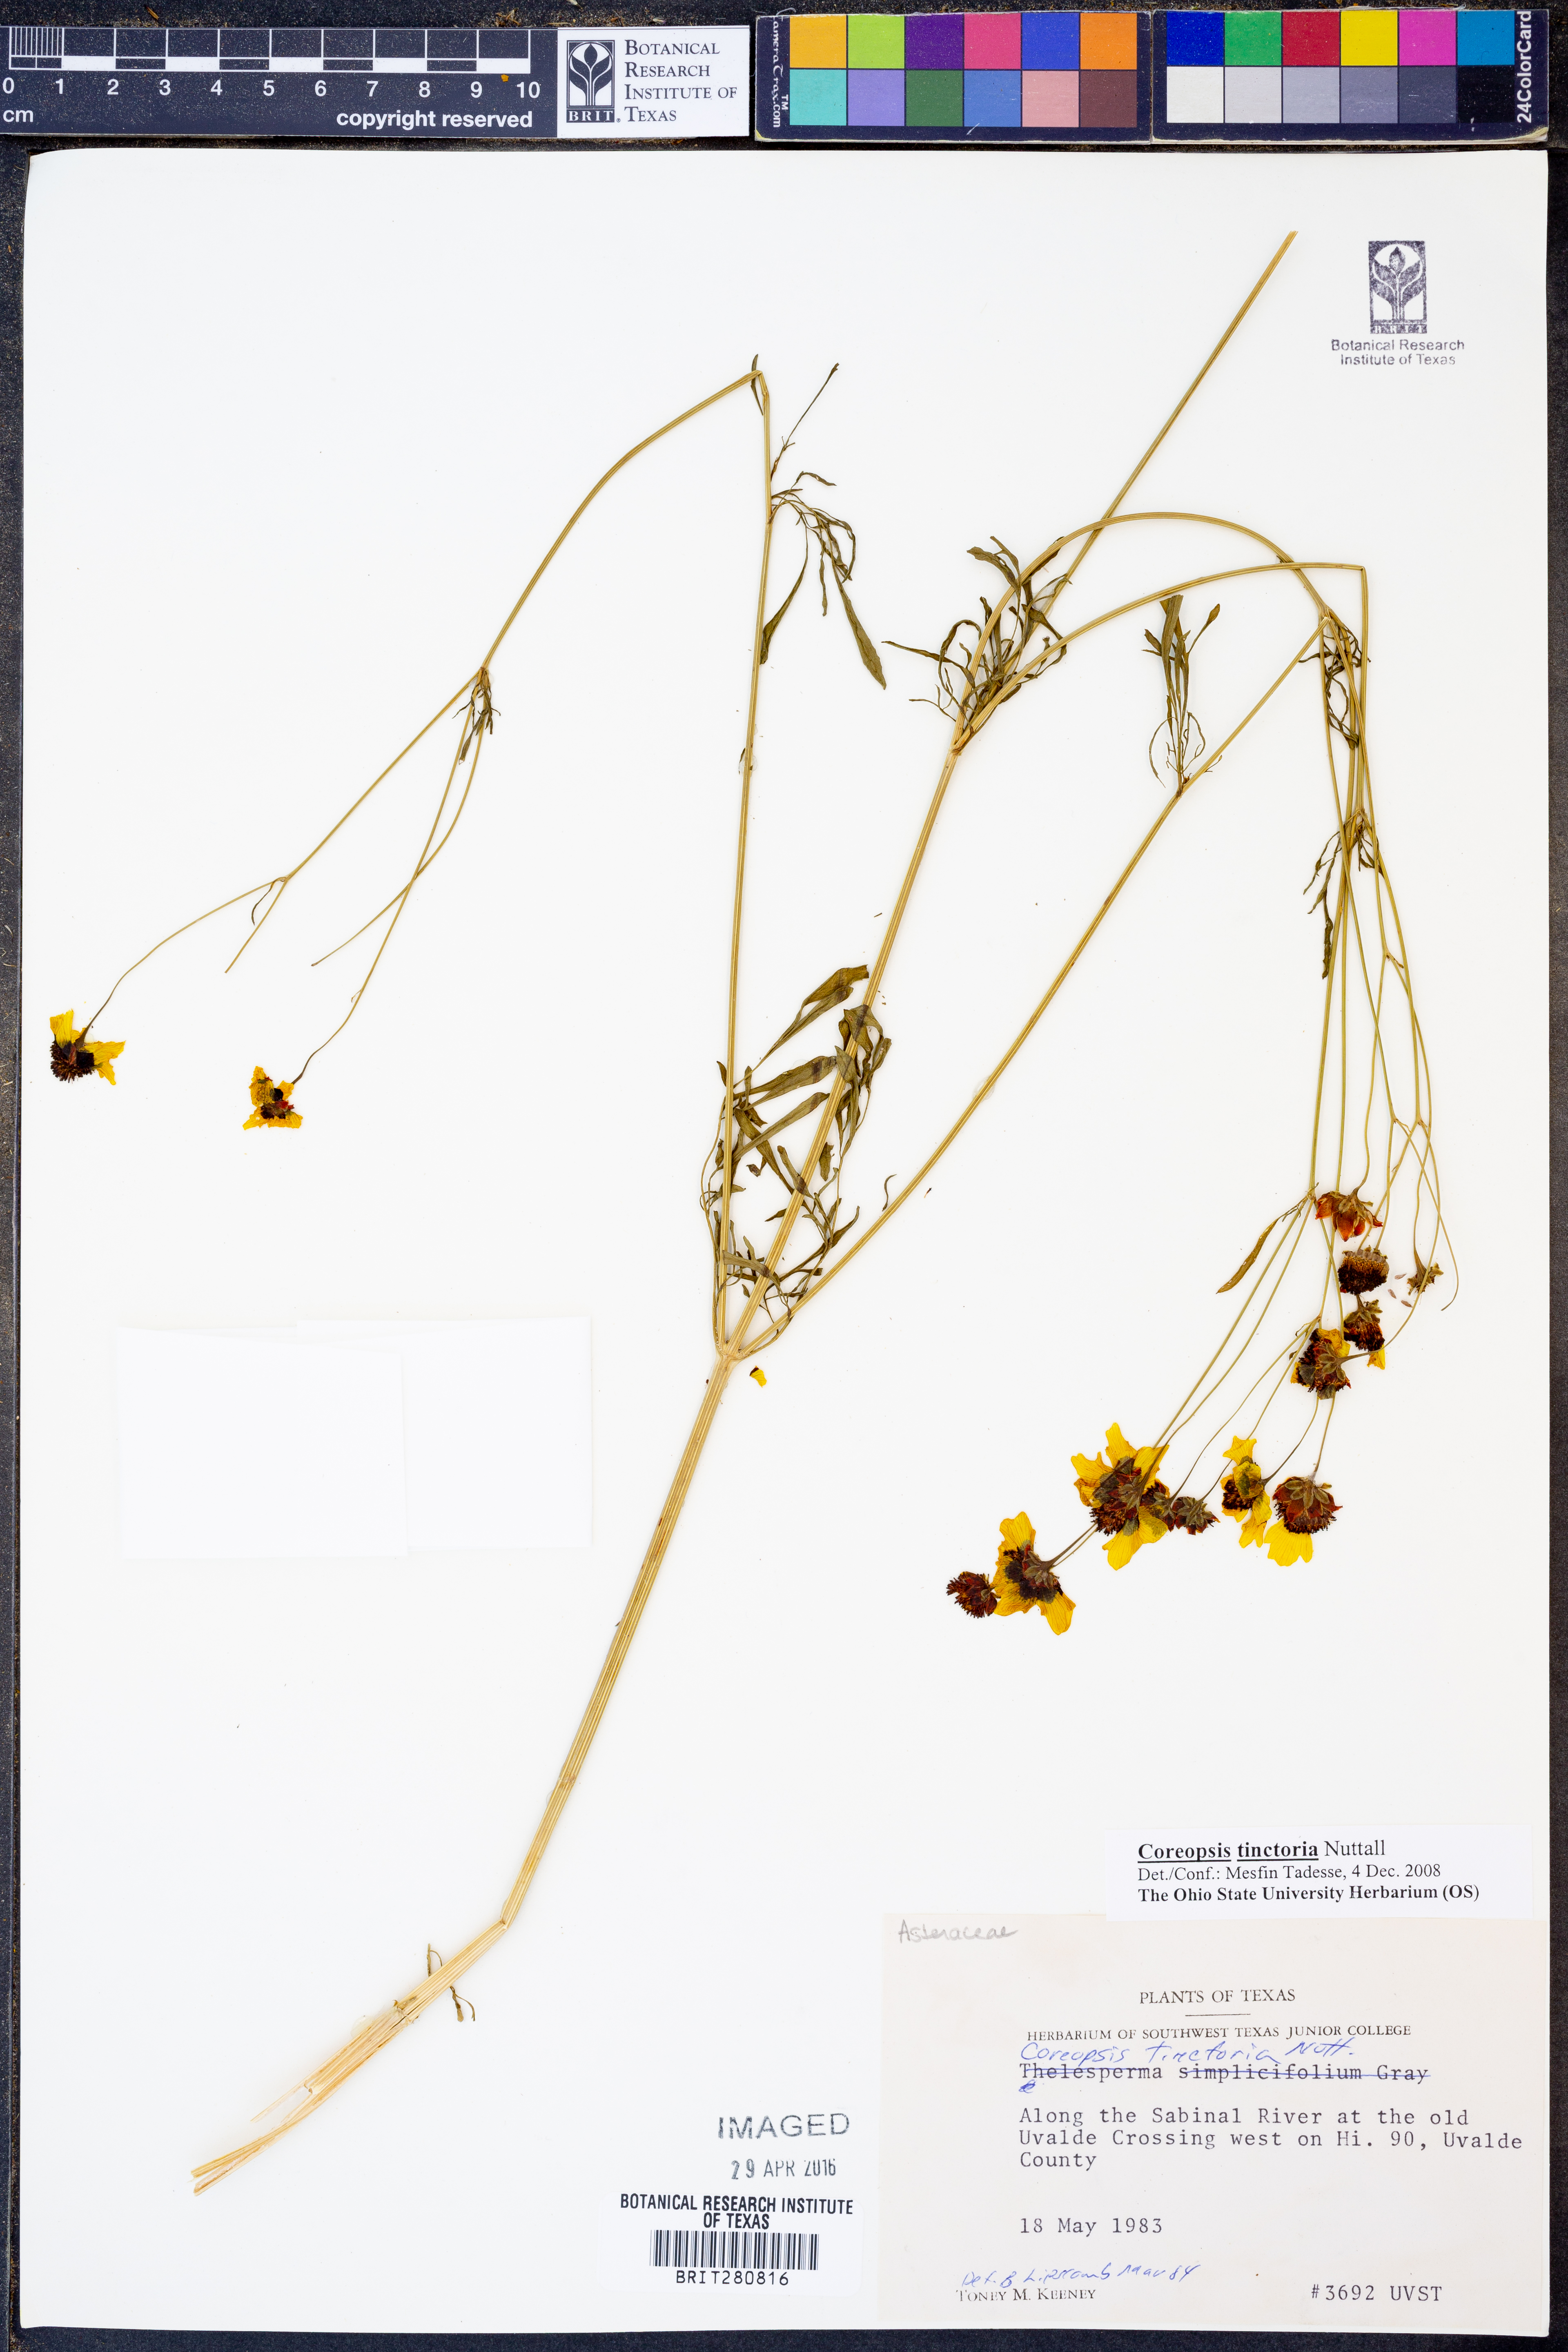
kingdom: Plantae
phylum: Tracheophyta
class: Magnoliopsida
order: Asterales
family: Asteraceae
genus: Coreopsis
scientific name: Coreopsis tinctoria
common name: Garden tickseed
